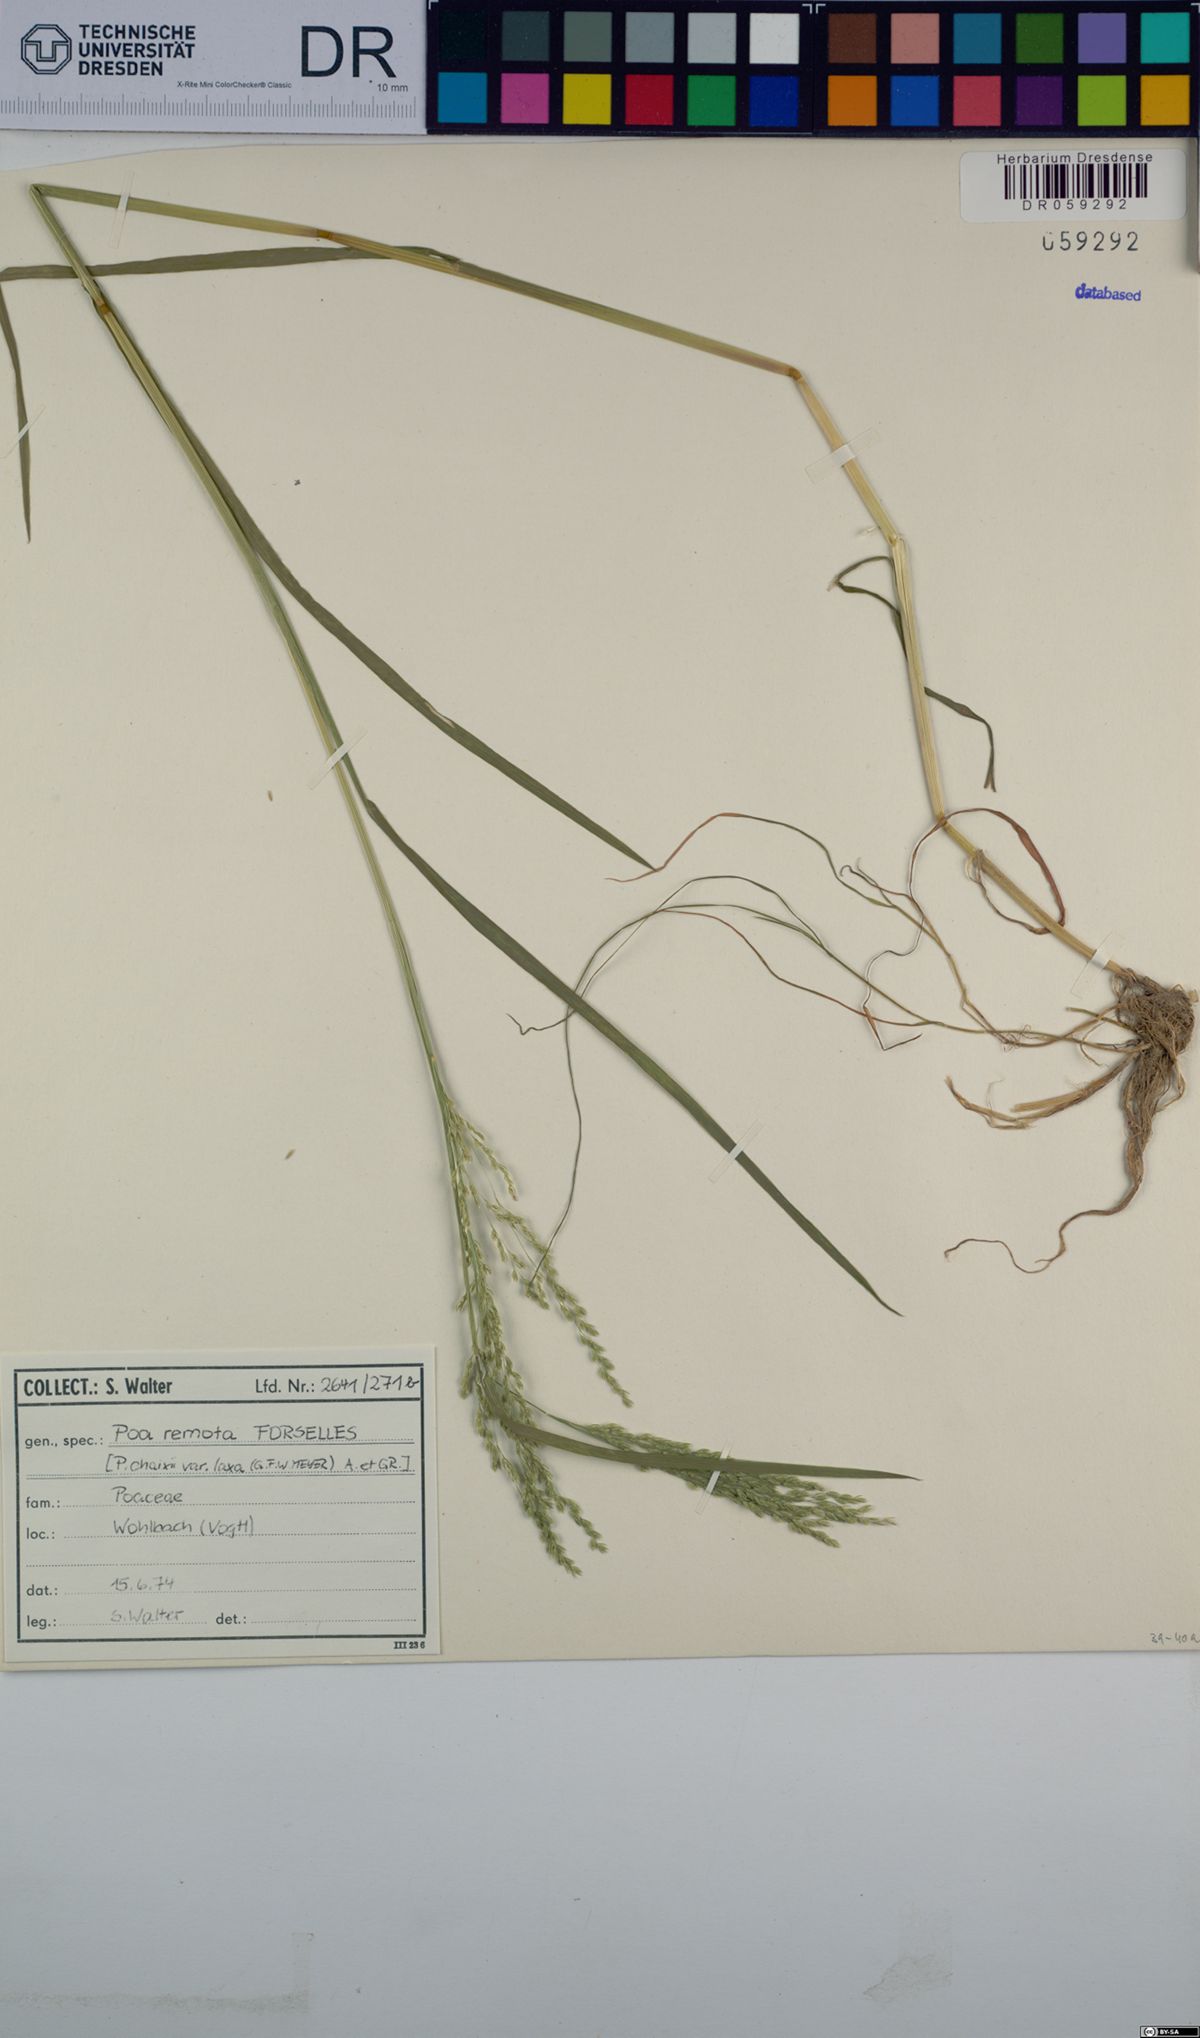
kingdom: Plantae
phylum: Tracheophyta
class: Liliopsida
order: Poales
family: Poaceae
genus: Poa
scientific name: Poa remota
